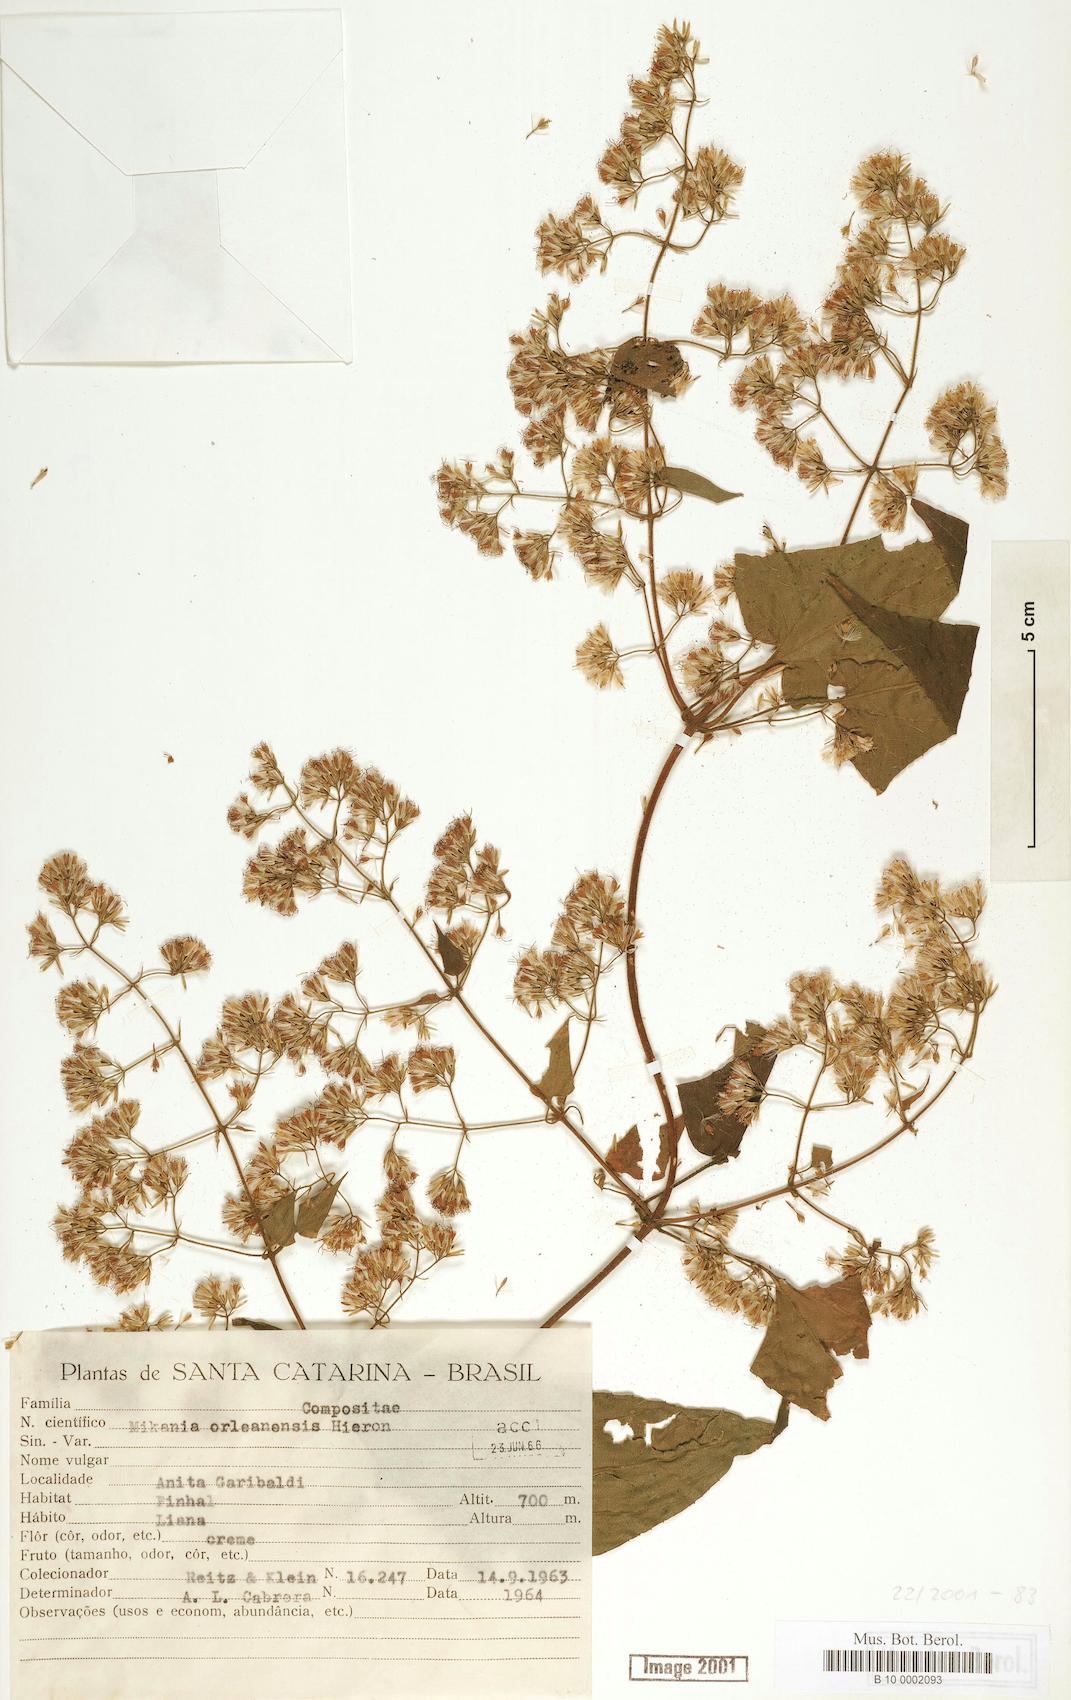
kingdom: Plantae
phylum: Tracheophyta
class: Magnoliopsida
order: Asterales
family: Asteraceae
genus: Mikania
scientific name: Mikania orleansensis
